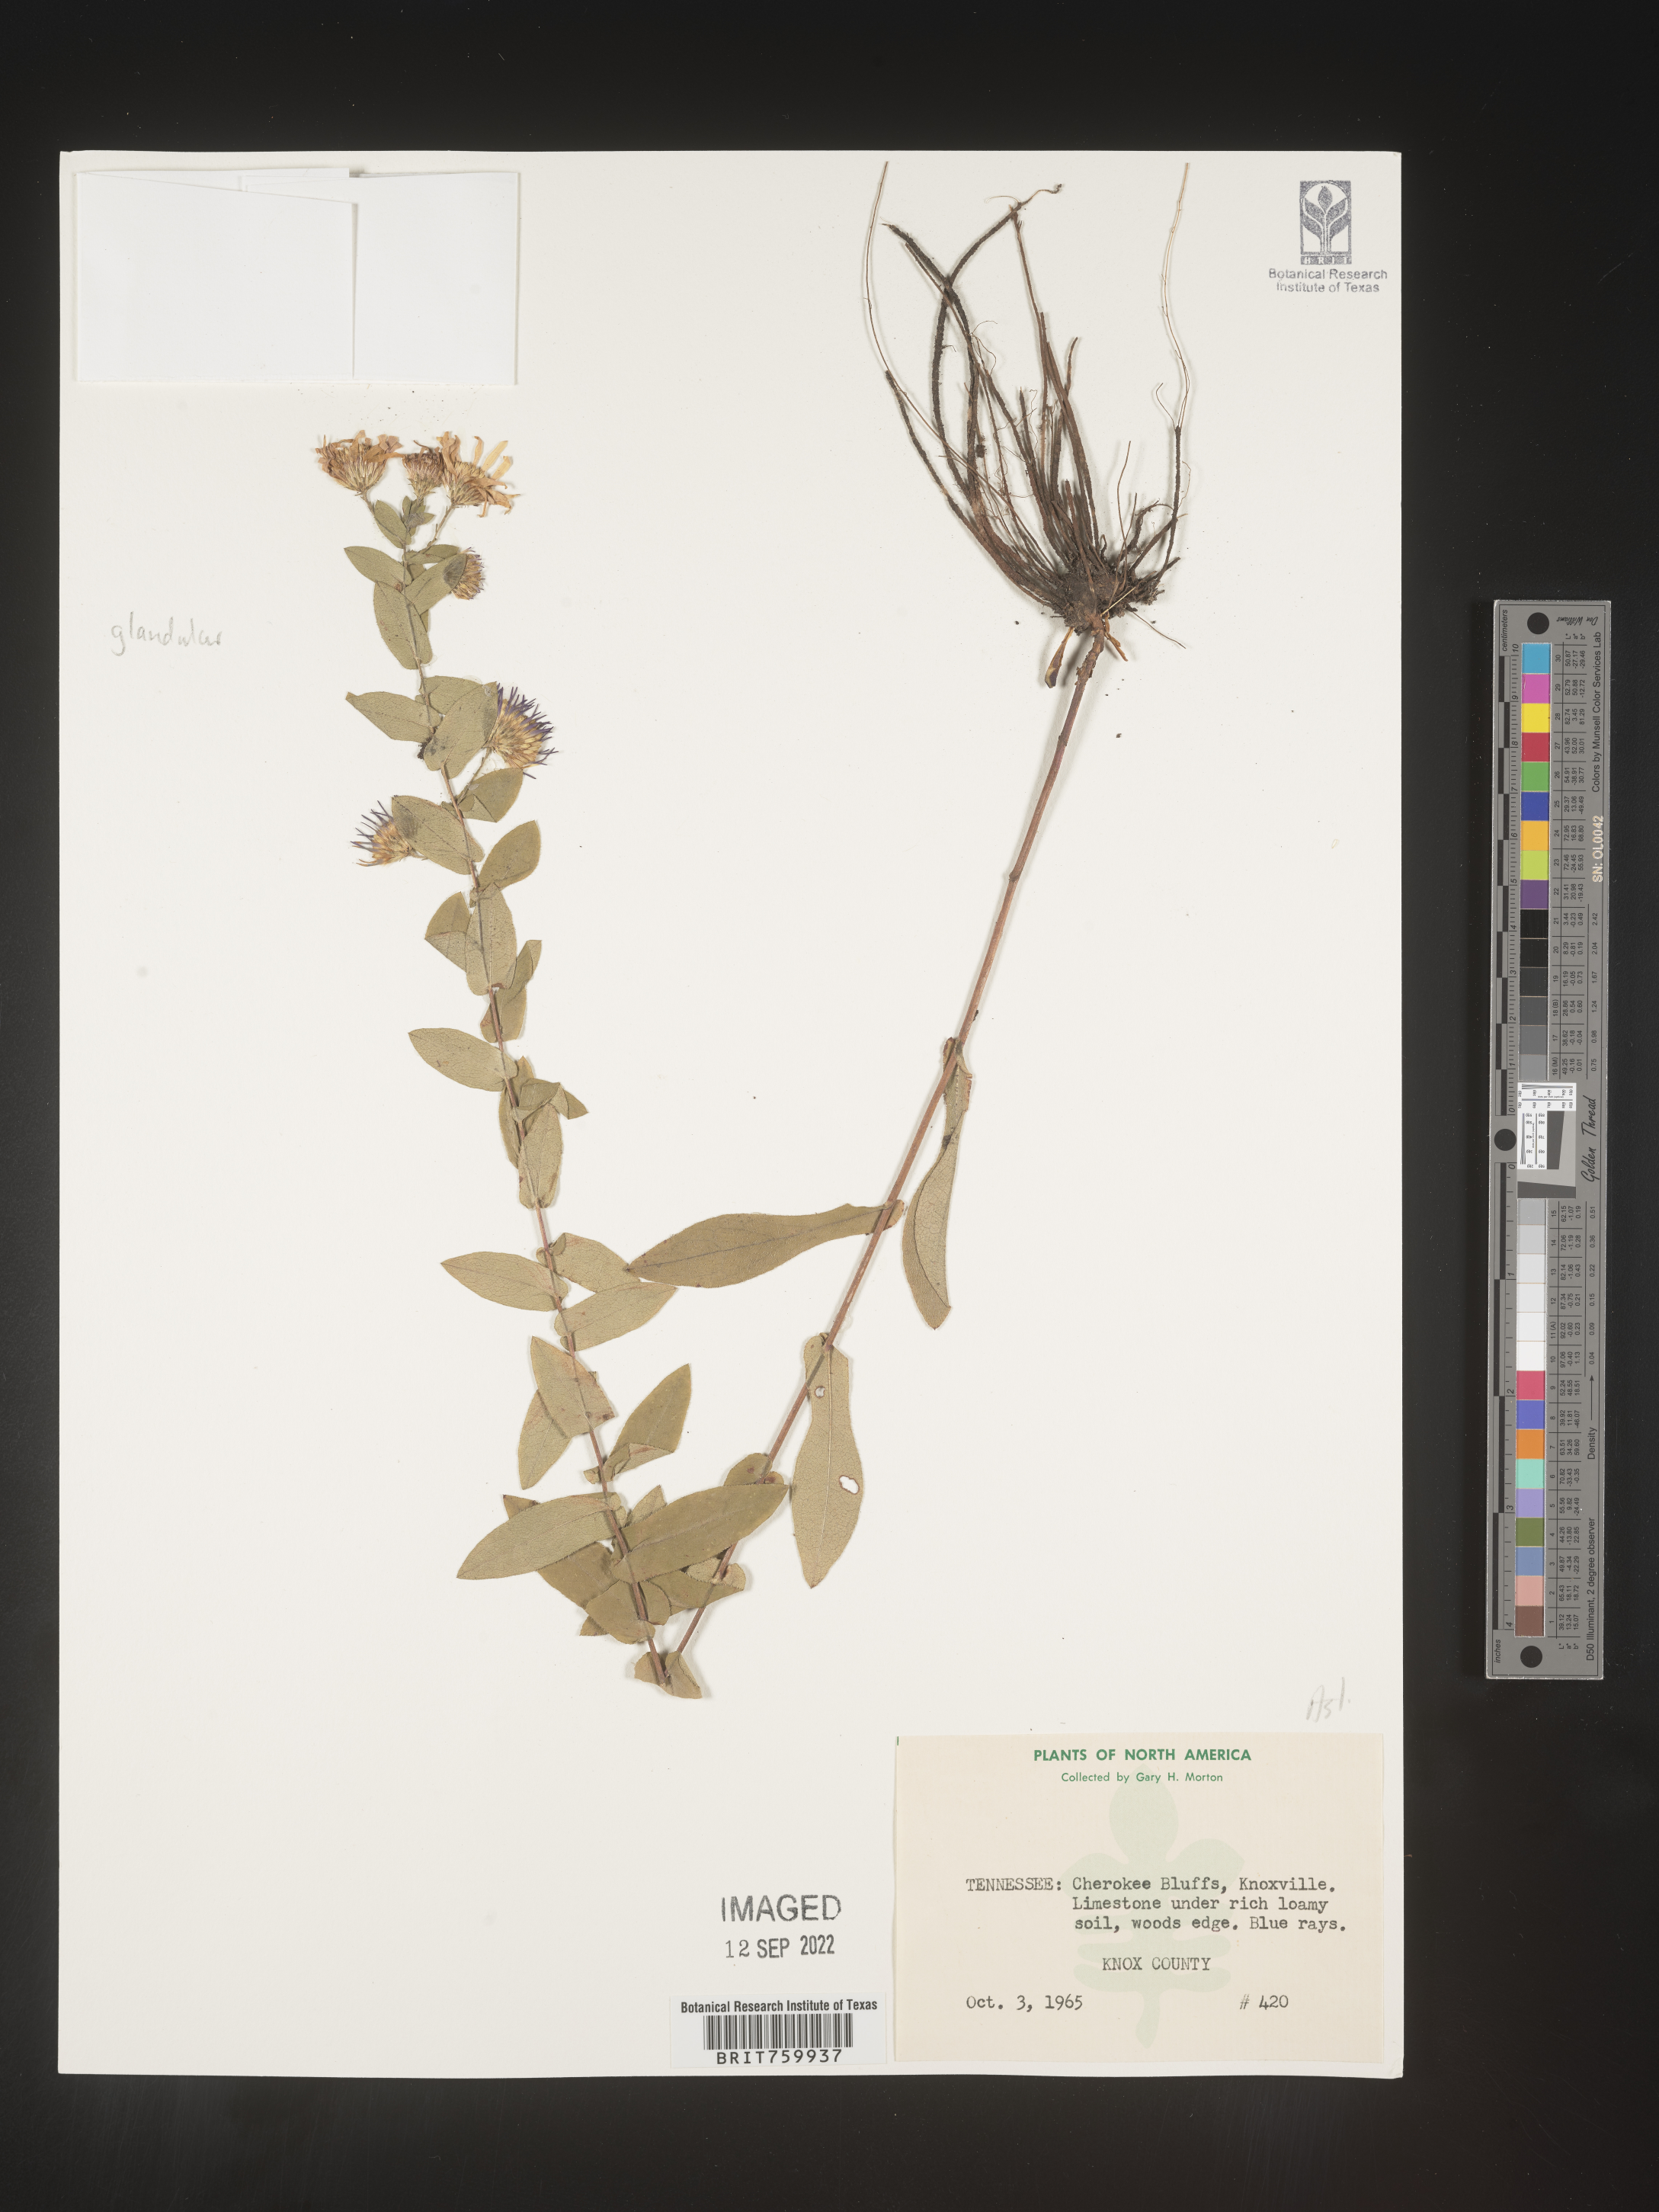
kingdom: Plantae
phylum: Tracheophyta
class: Magnoliopsida
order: Asterales
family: Asteraceae
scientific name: Asteraceae
